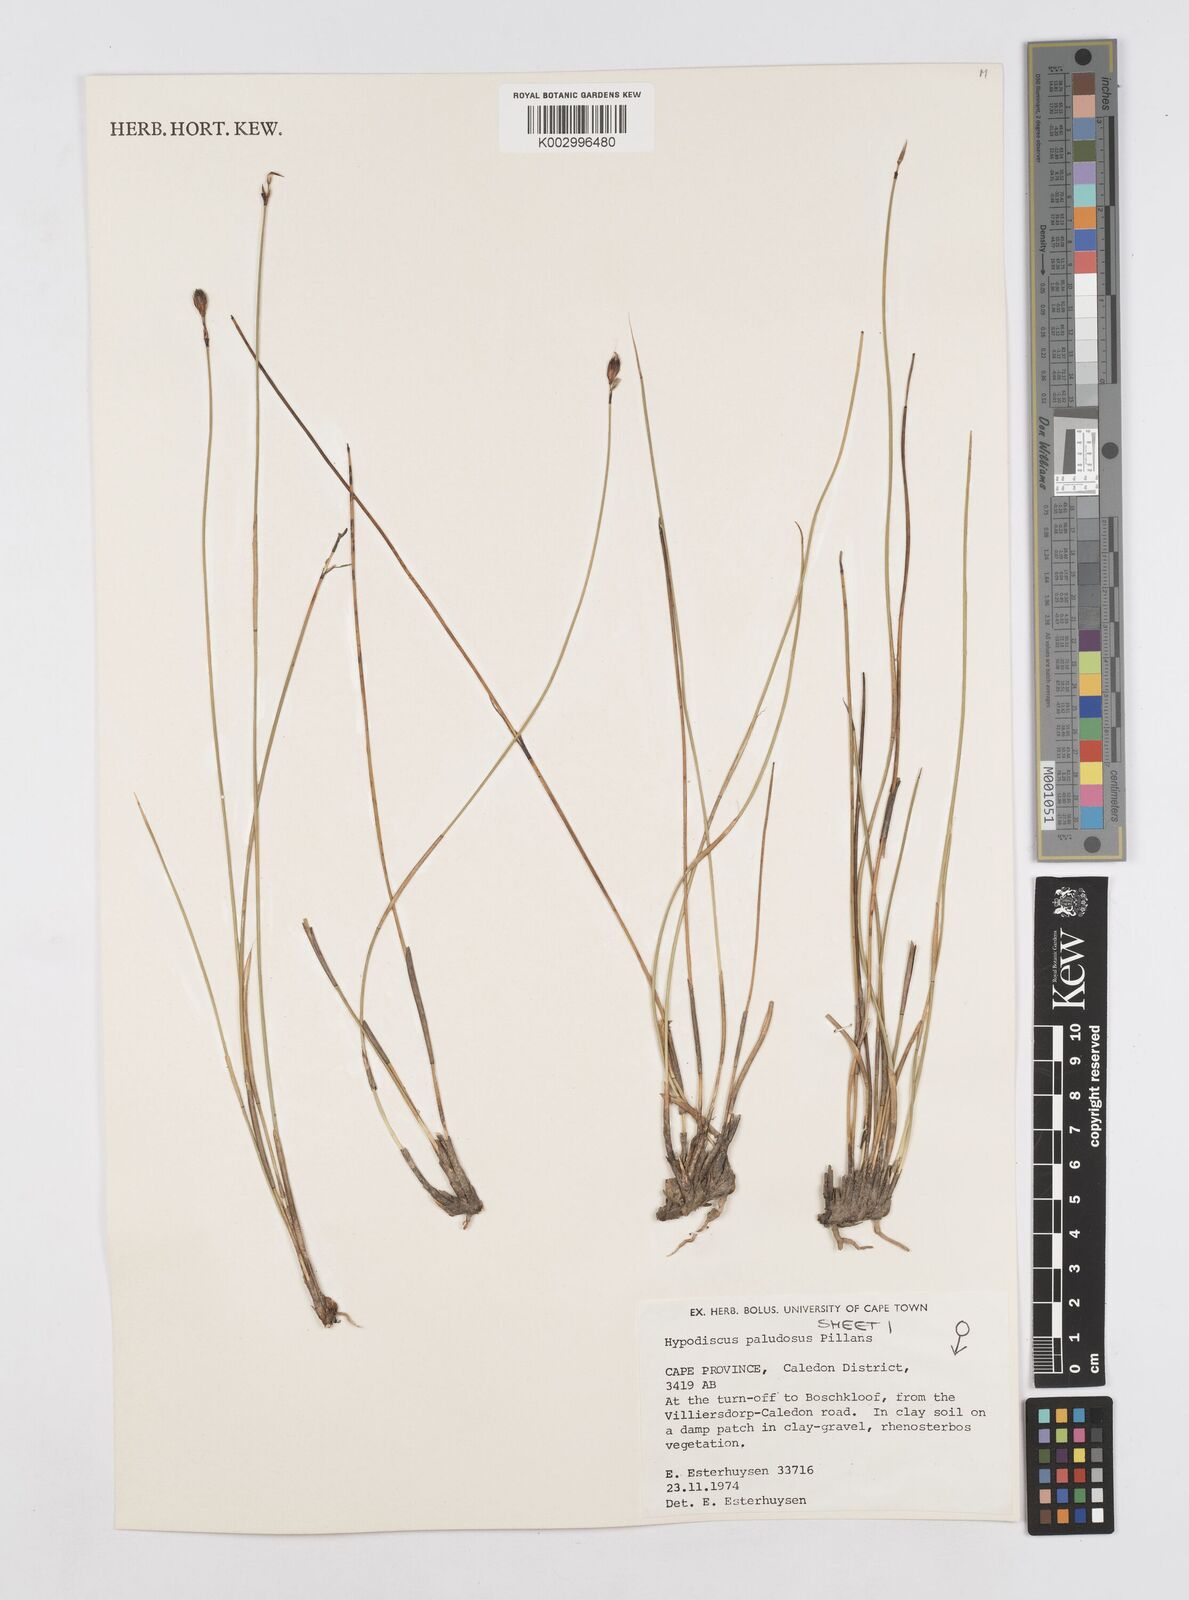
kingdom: Plantae
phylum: Tracheophyta
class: Liliopsida
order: Poales
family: Restionaceae
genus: Hypodiscus
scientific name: Hypodiscus rugosus
